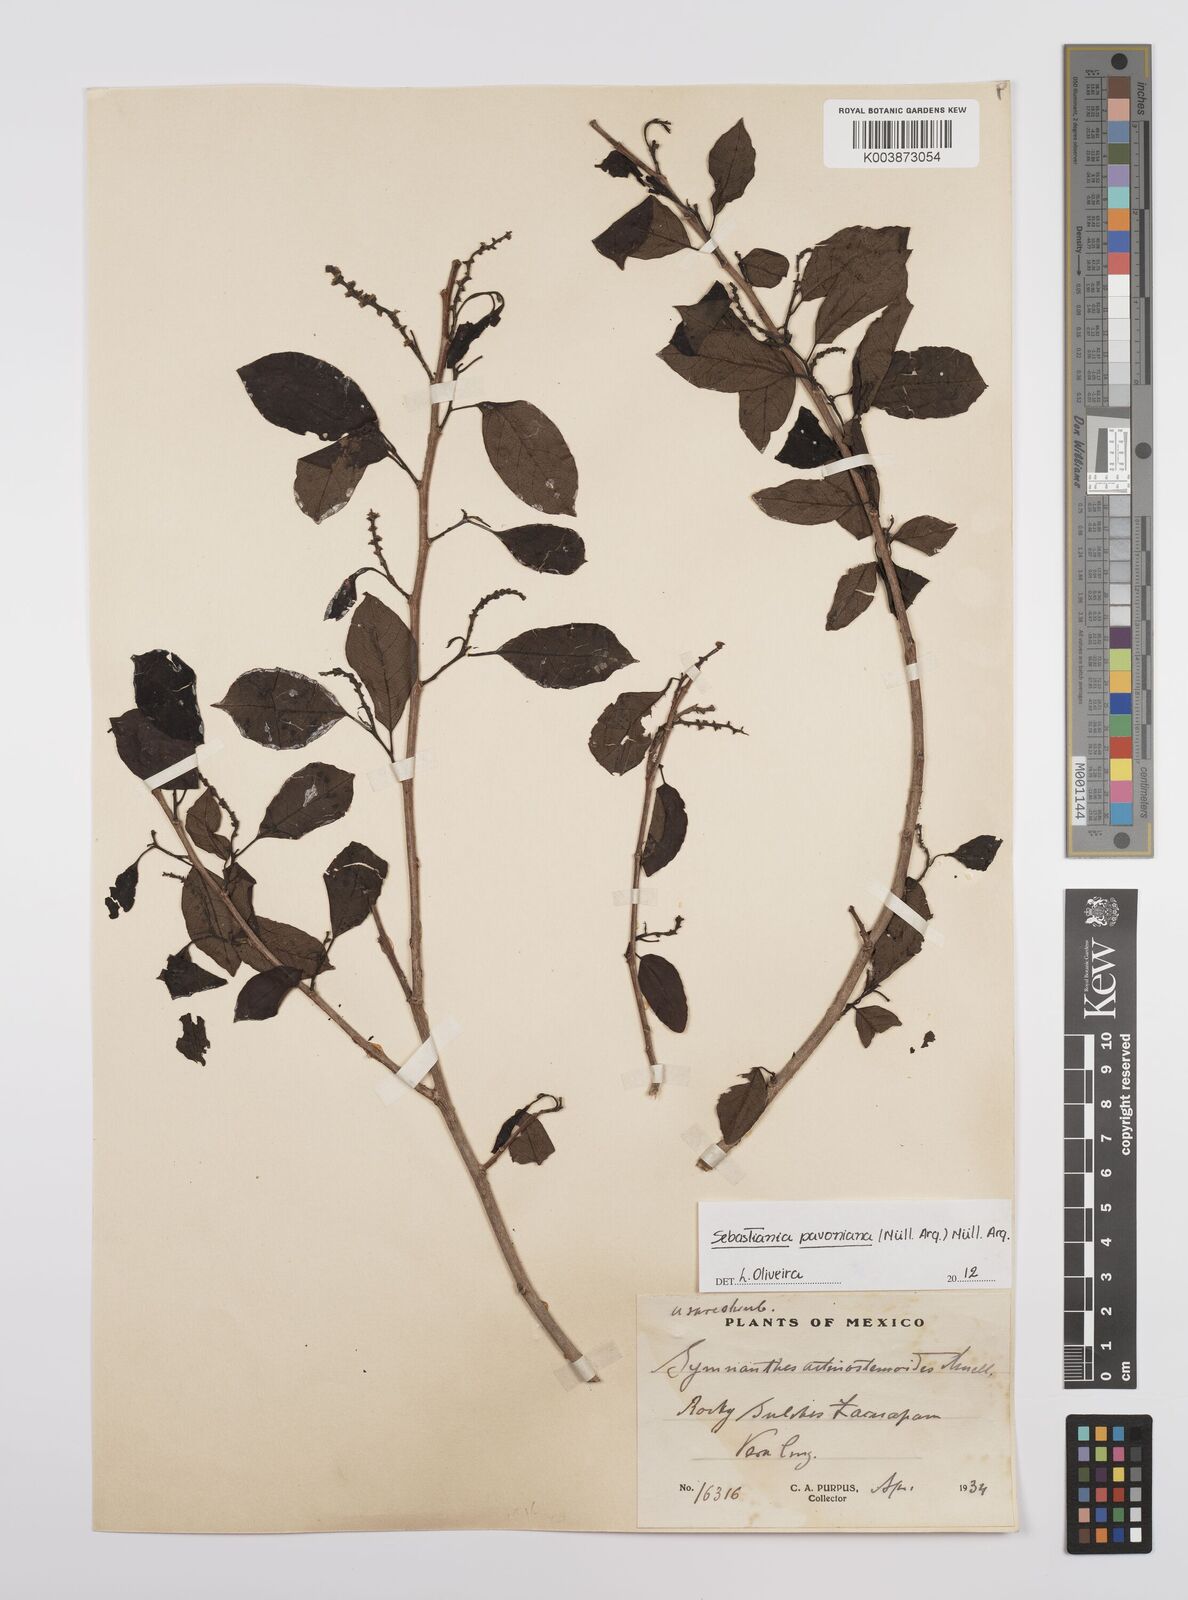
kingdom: Plantae
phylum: Tracheophyta
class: Magnoliopsida
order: Malpighiales
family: Euphorbiaceae
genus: Sebastiania
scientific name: Sebastiania pavoniana
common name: Mexican jumping-beans
